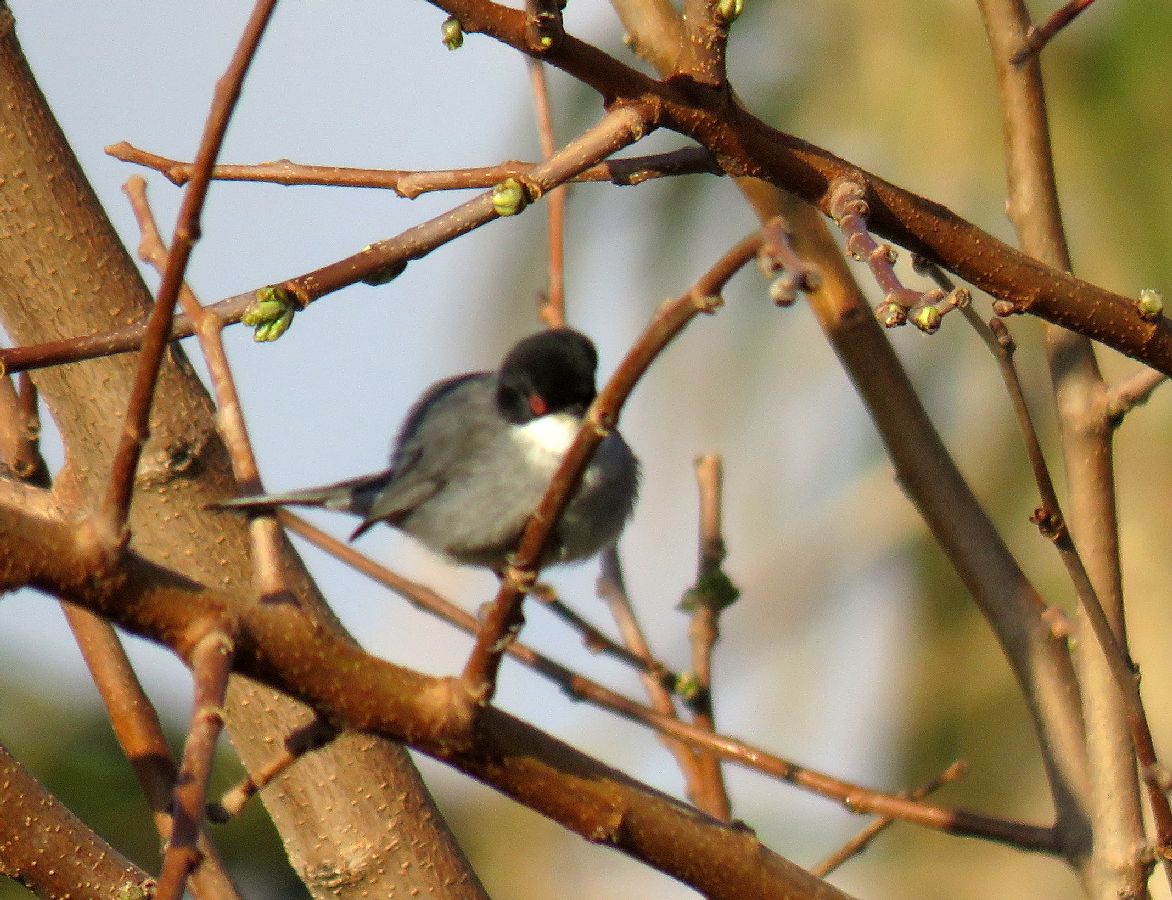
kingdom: Animalia
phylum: Chordata
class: Aves
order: Passeriformes
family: Sylviidae
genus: Sylvia
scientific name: Sylvia melanocephala
